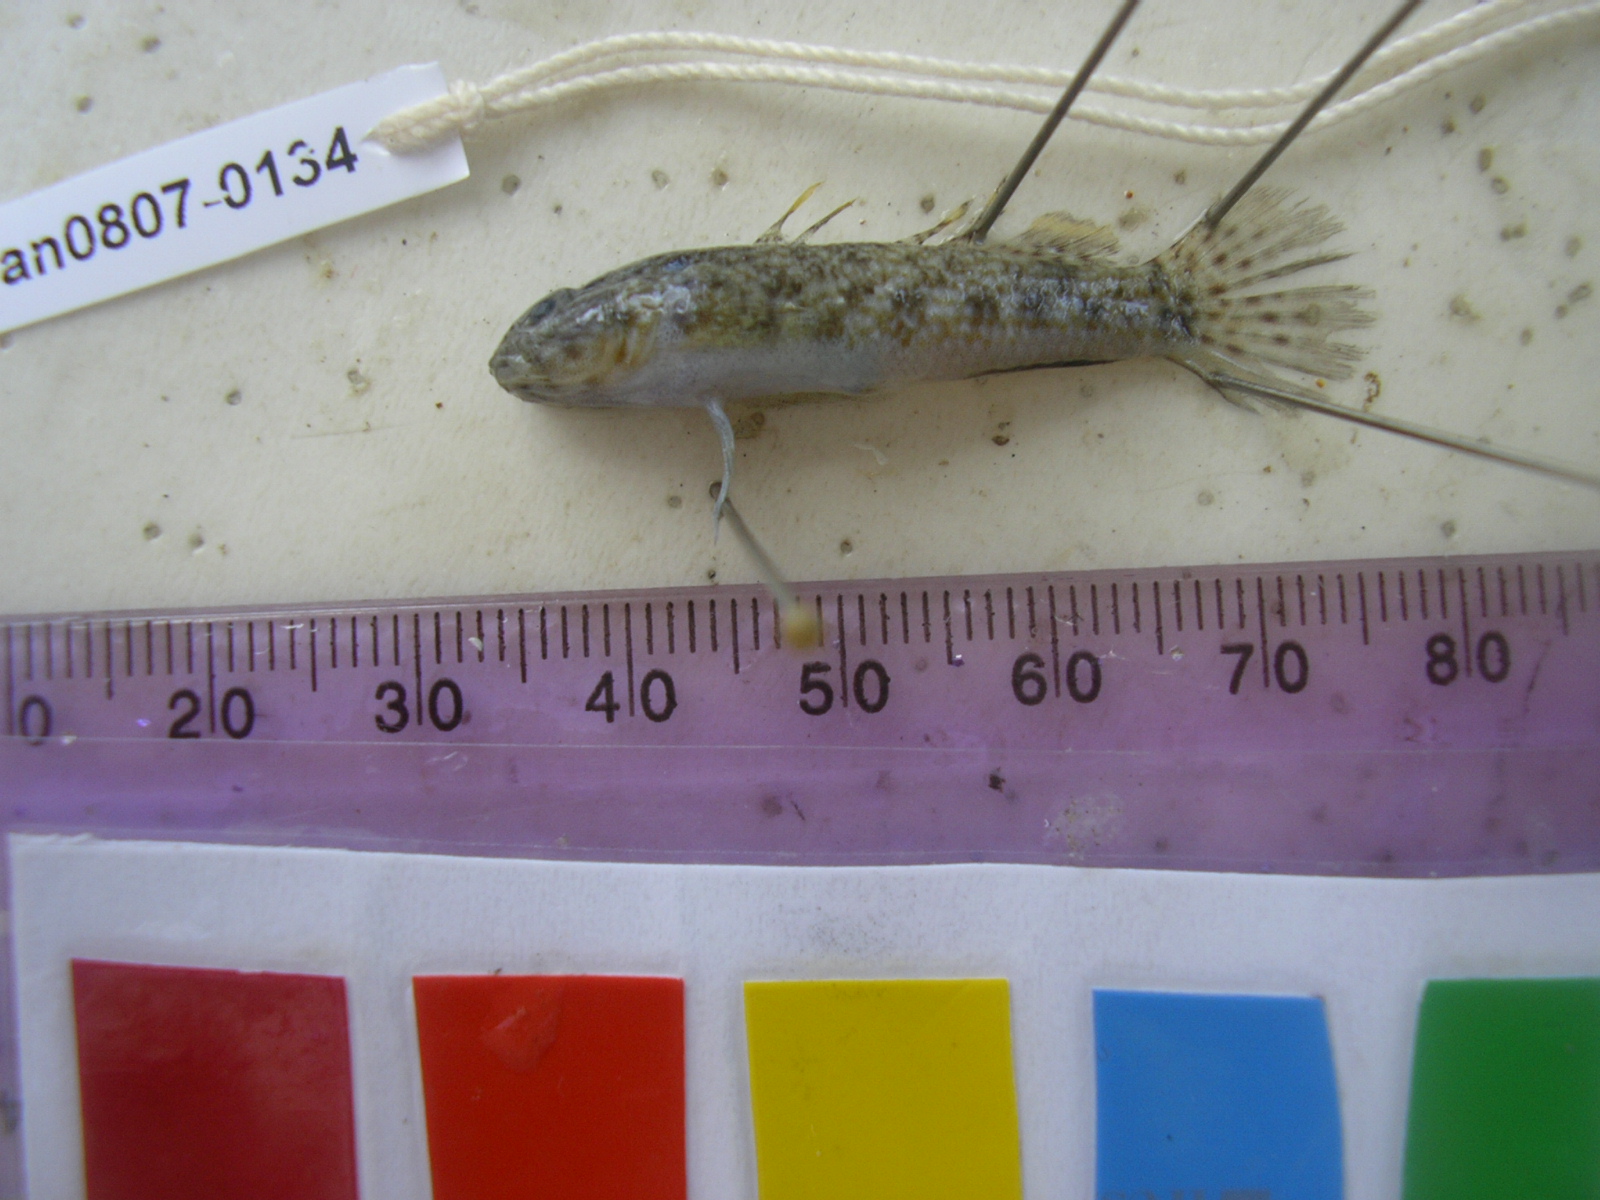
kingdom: Animalia
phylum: Chordata
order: Perciformes
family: Gobiidae
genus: Bathygobius
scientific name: Bathygobius cocosensis
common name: Cocos frillgoby
